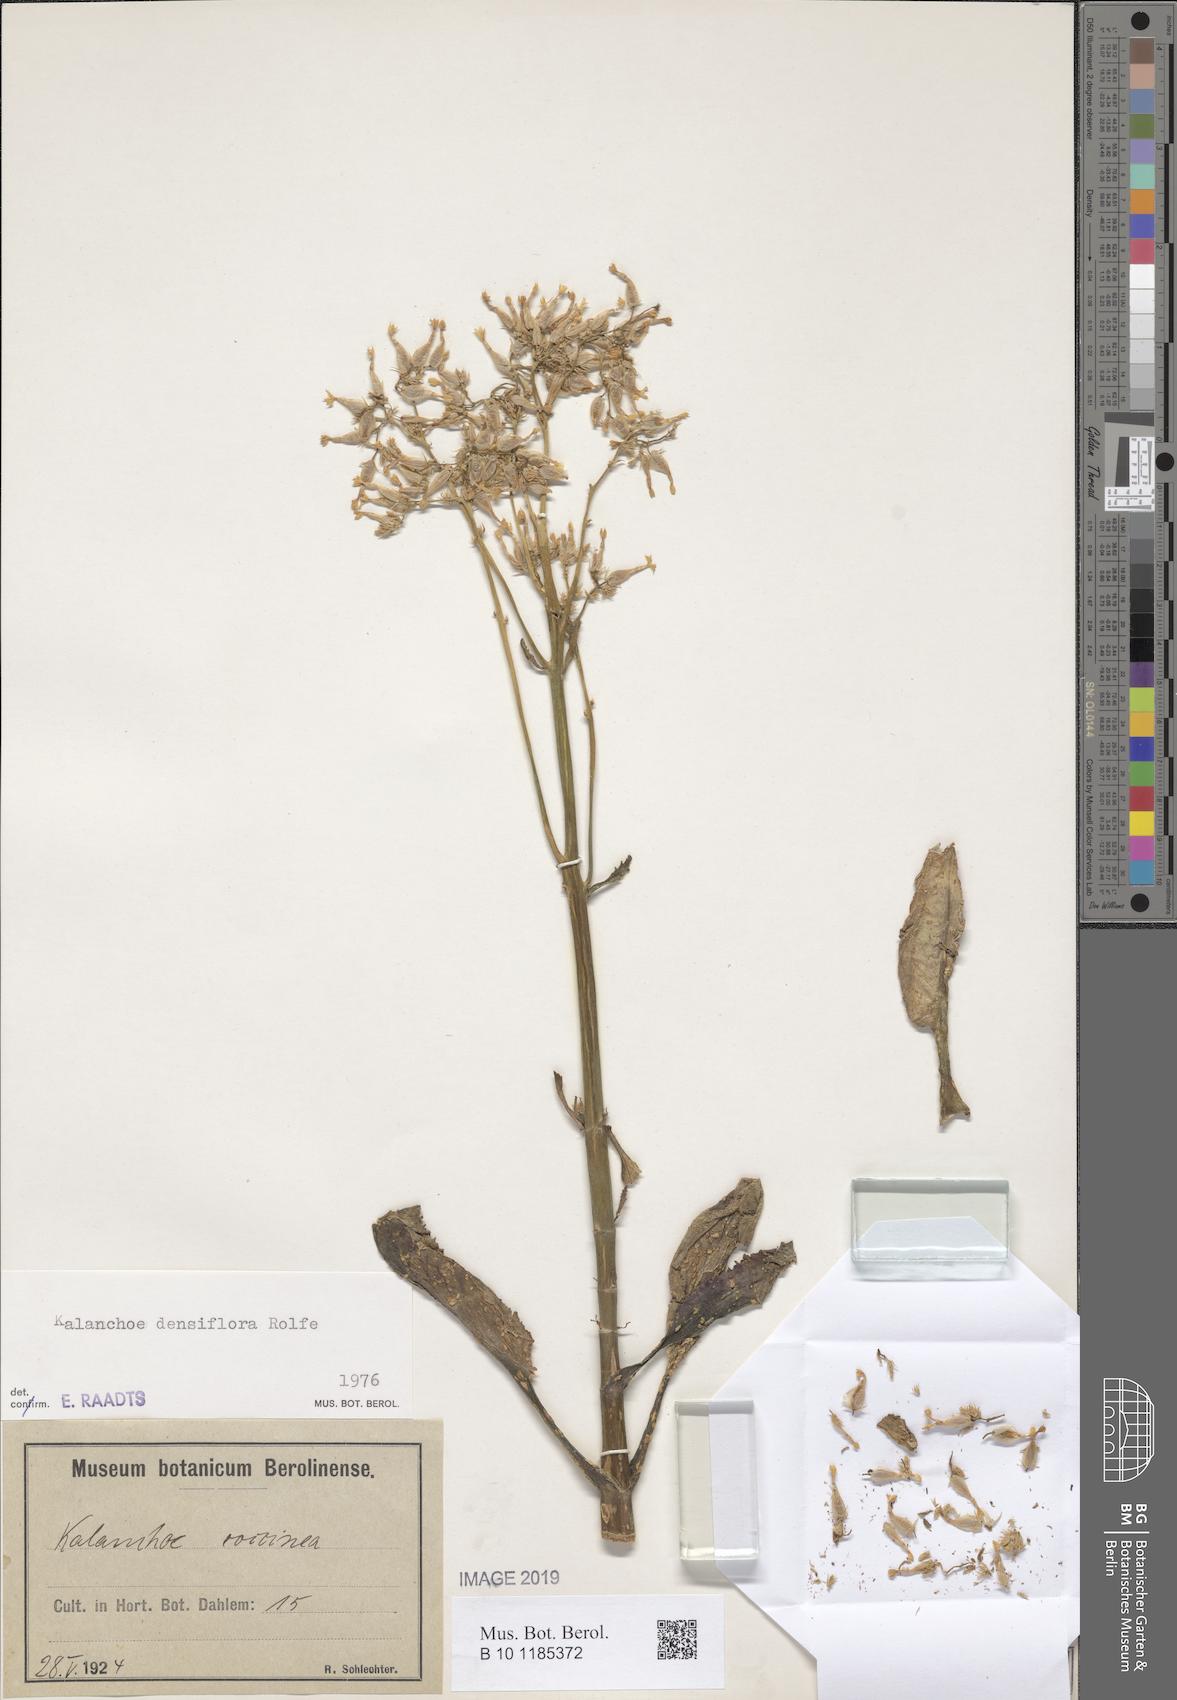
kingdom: Plantae
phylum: Tracheophyta
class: Magnoliopsida
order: Saxifragales
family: Crassulaceae
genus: Kalanchoe
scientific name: Kalanchoe densiflora
